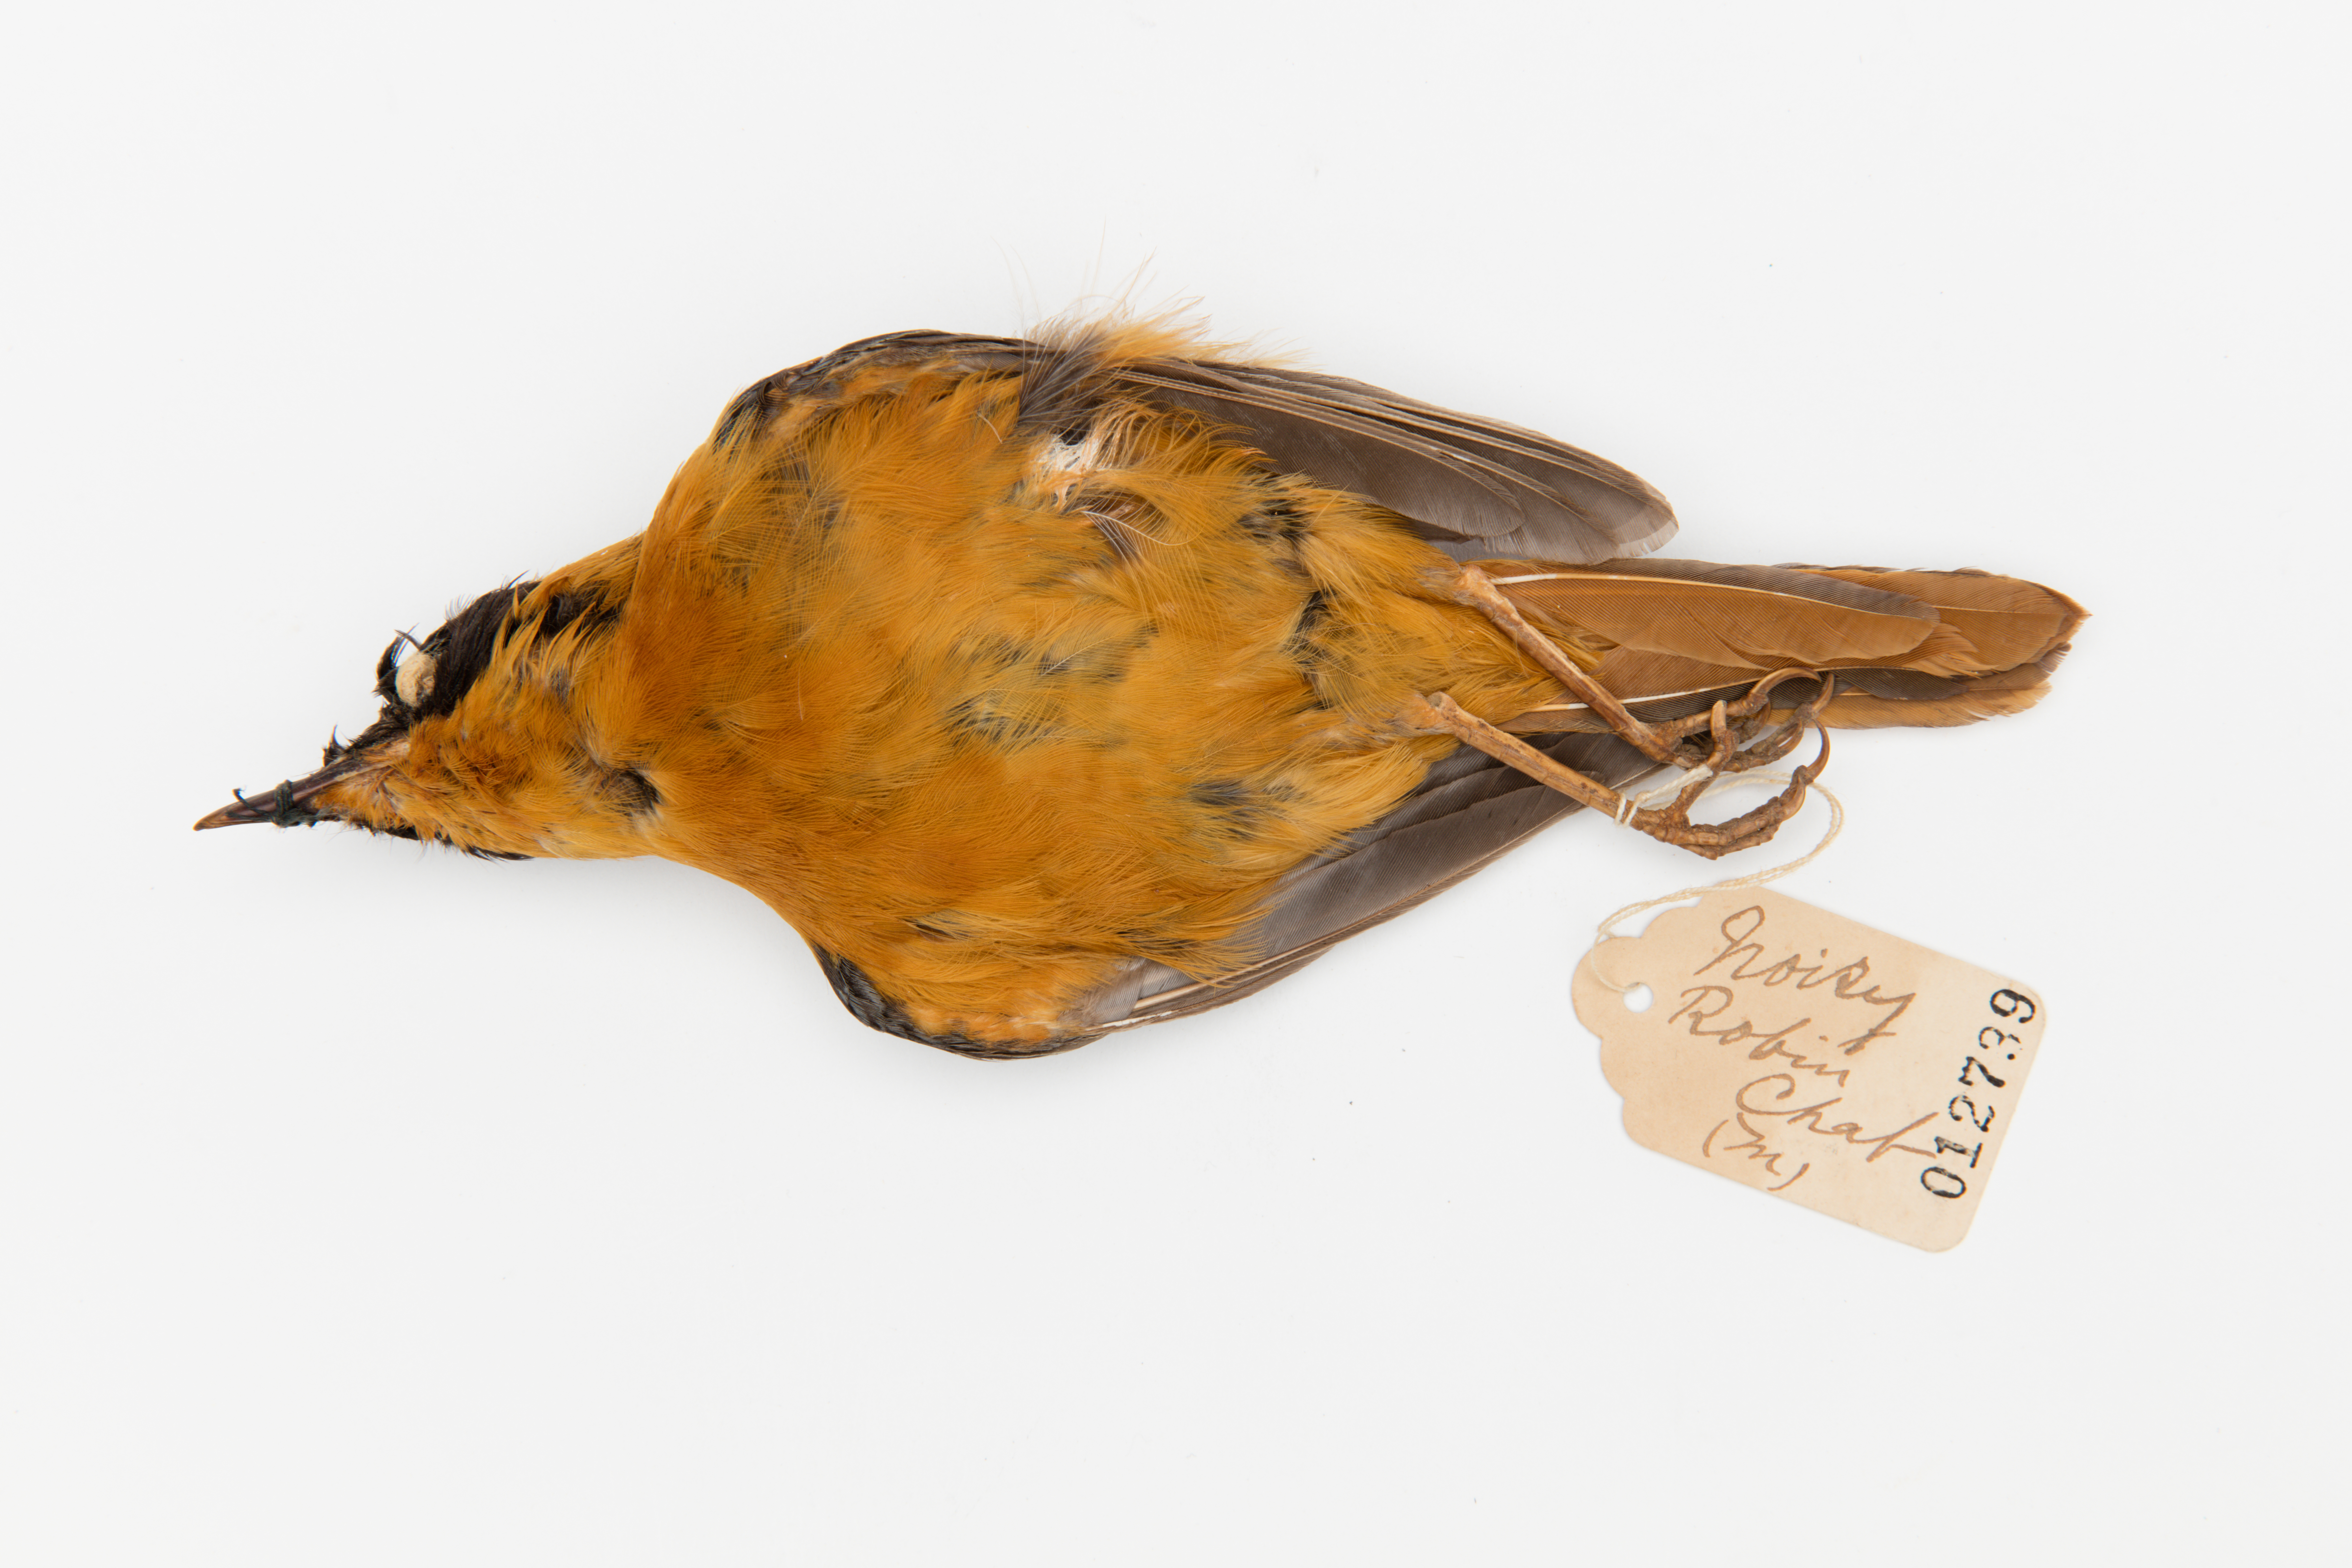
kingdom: Animalia
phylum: Chordata
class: Aves
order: Passeriformes
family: Muscicapidae
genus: Cossypha
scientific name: Cossypha dichroa
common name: Chorister robin-chat
